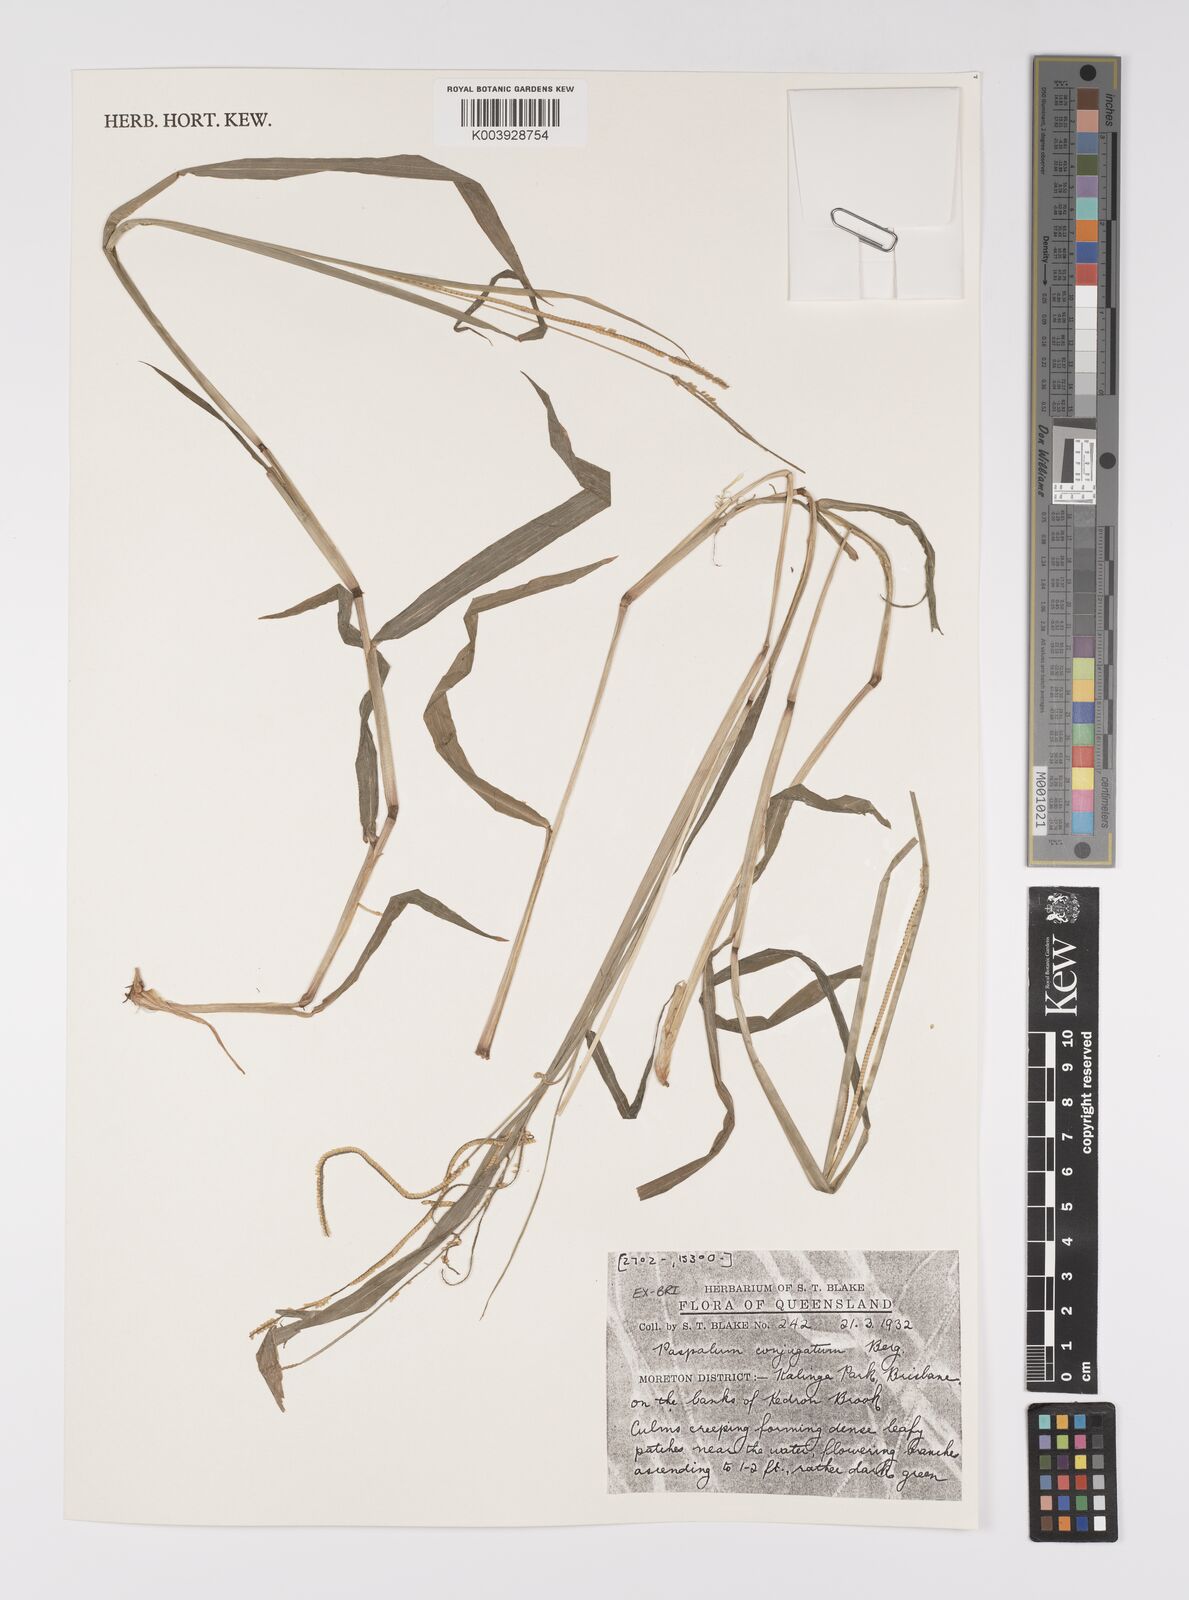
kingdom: Plantae
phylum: Tracheophyta
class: Liliopsida
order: Poales
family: Poaceae
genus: Paspalum
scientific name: Paspalum conjugatum
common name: Hilograss
